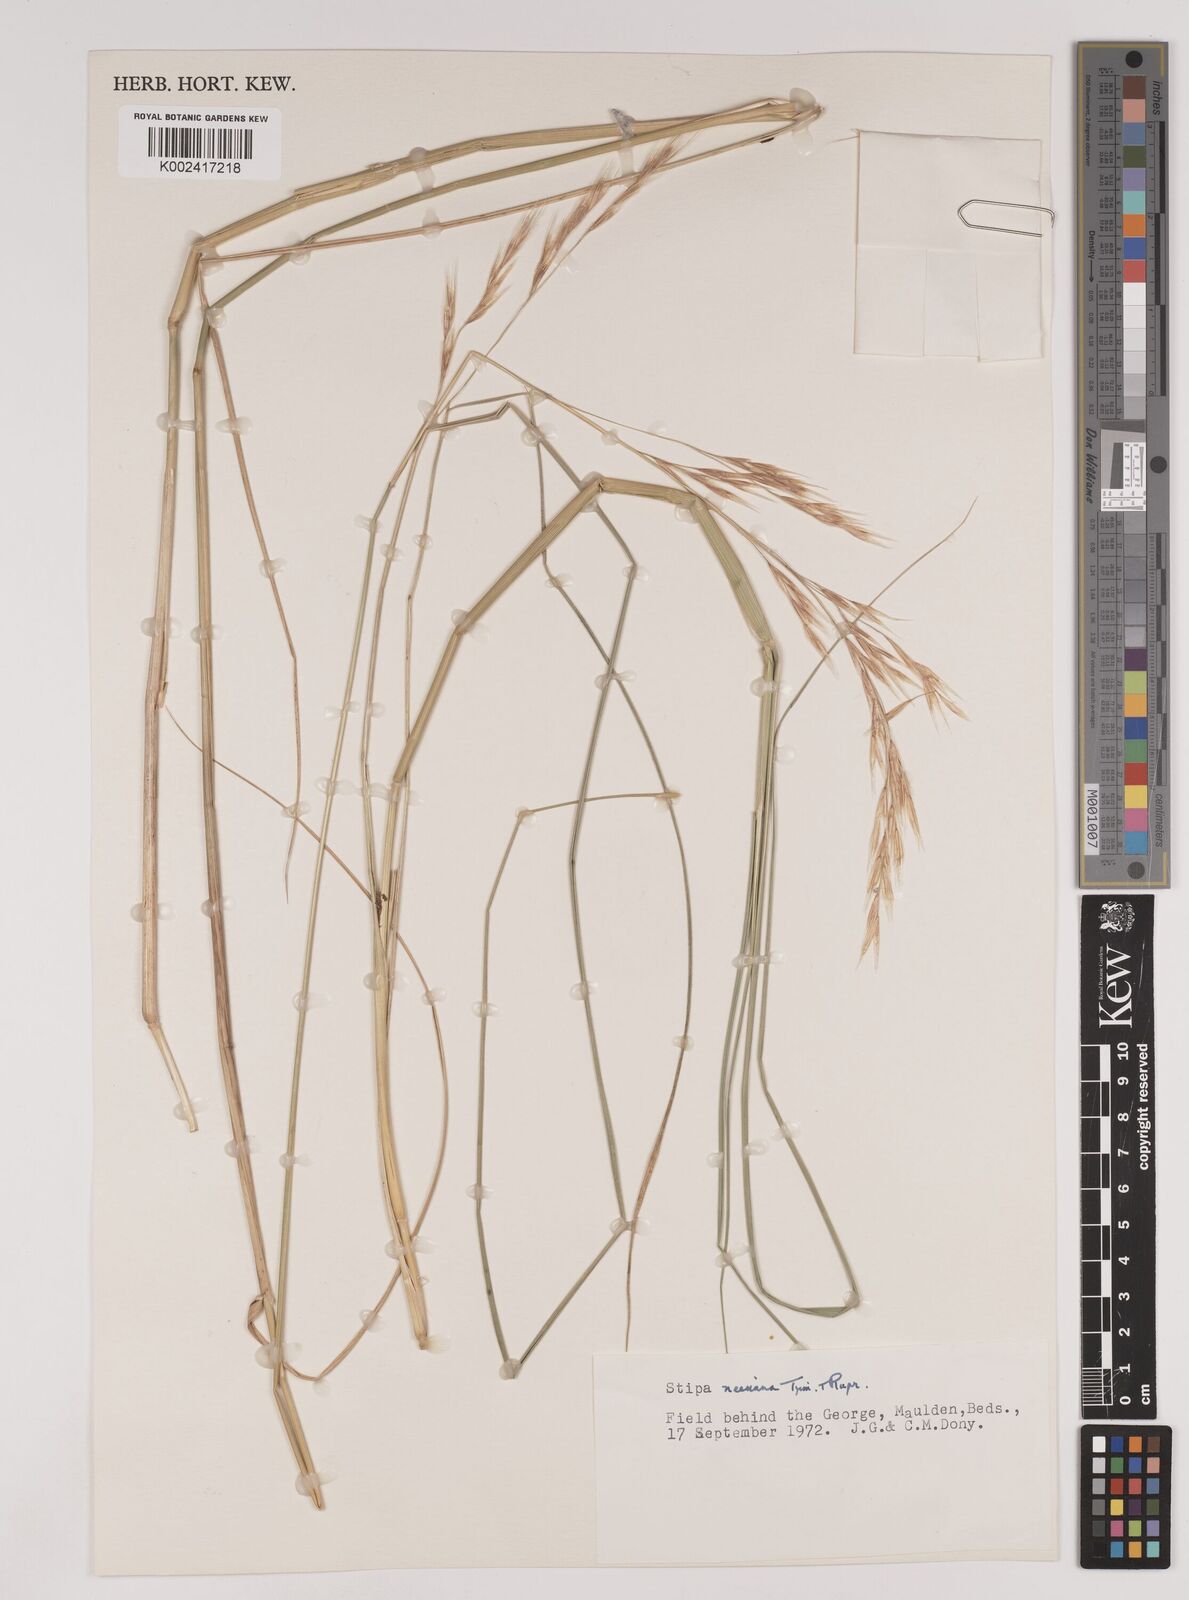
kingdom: Plantae
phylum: Tracheophyta
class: Liliopsida
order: Poales
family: Poaceae
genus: Nassella
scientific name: Nassella neesiana
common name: American needle-grass
